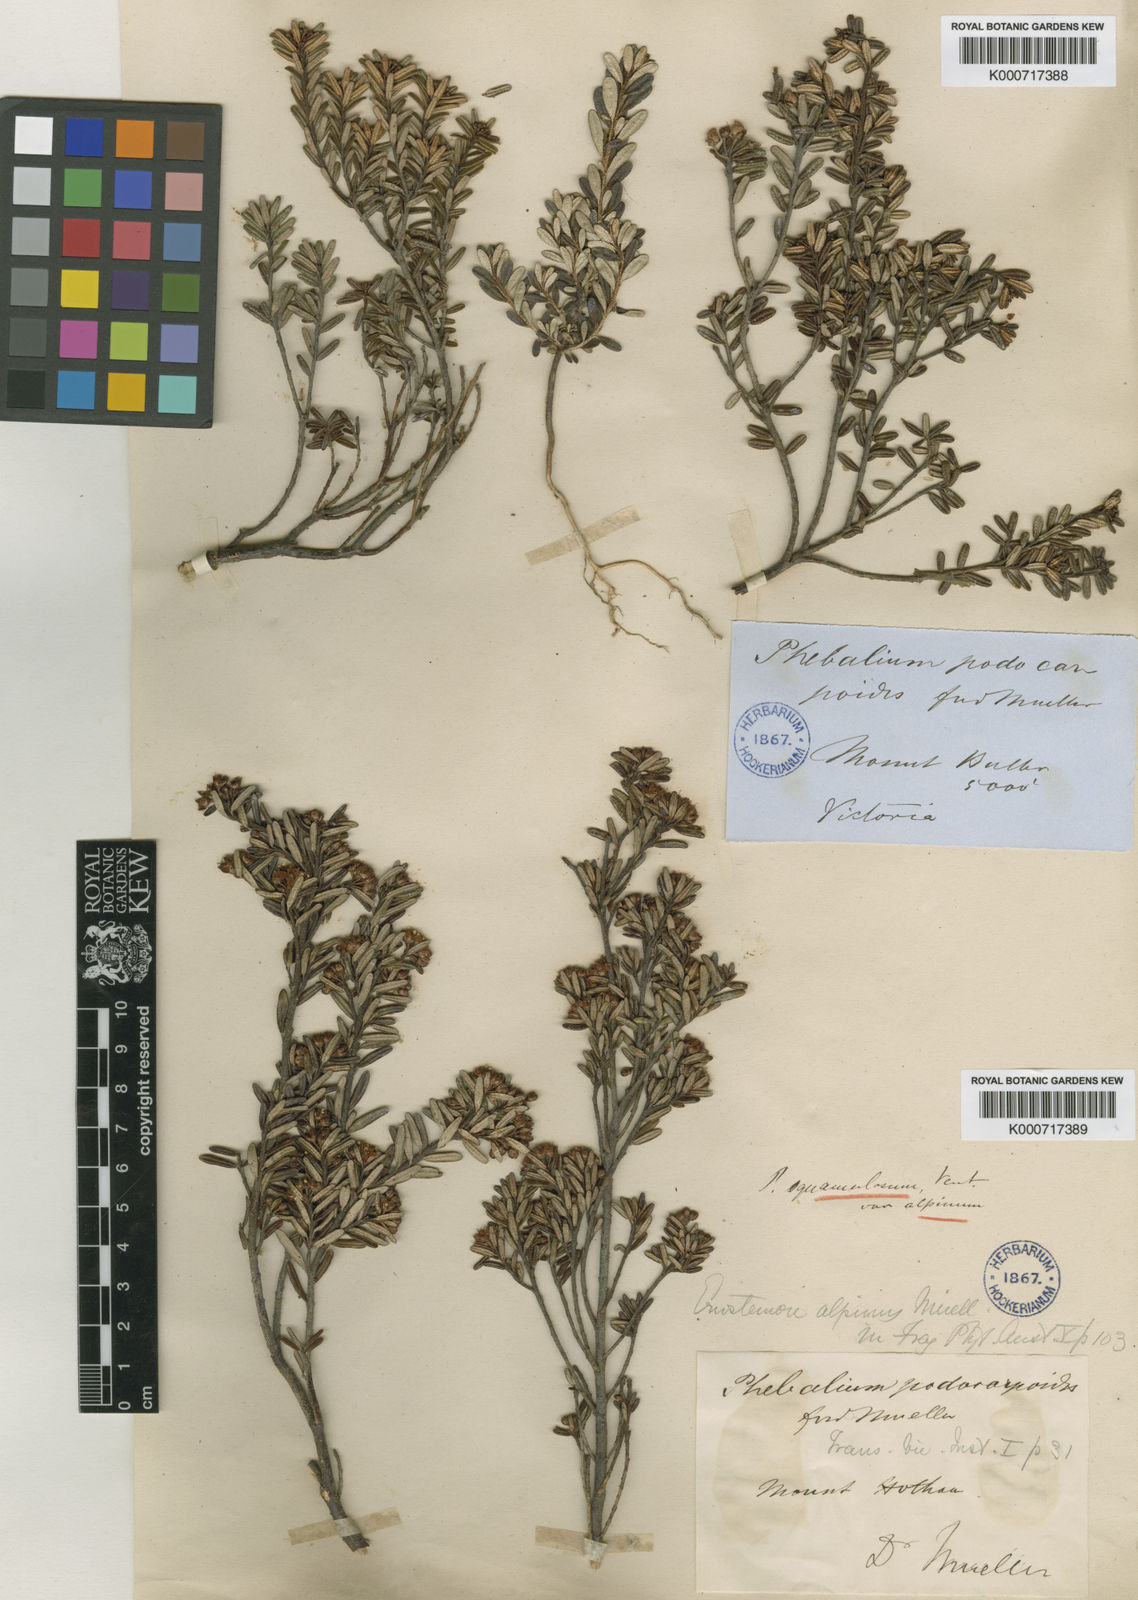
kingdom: Plantae
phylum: Tracheophyta
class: Magnoliopsida
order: Sapindales
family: Rutaceae
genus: Phebalium
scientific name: Phebalium squamulosum
